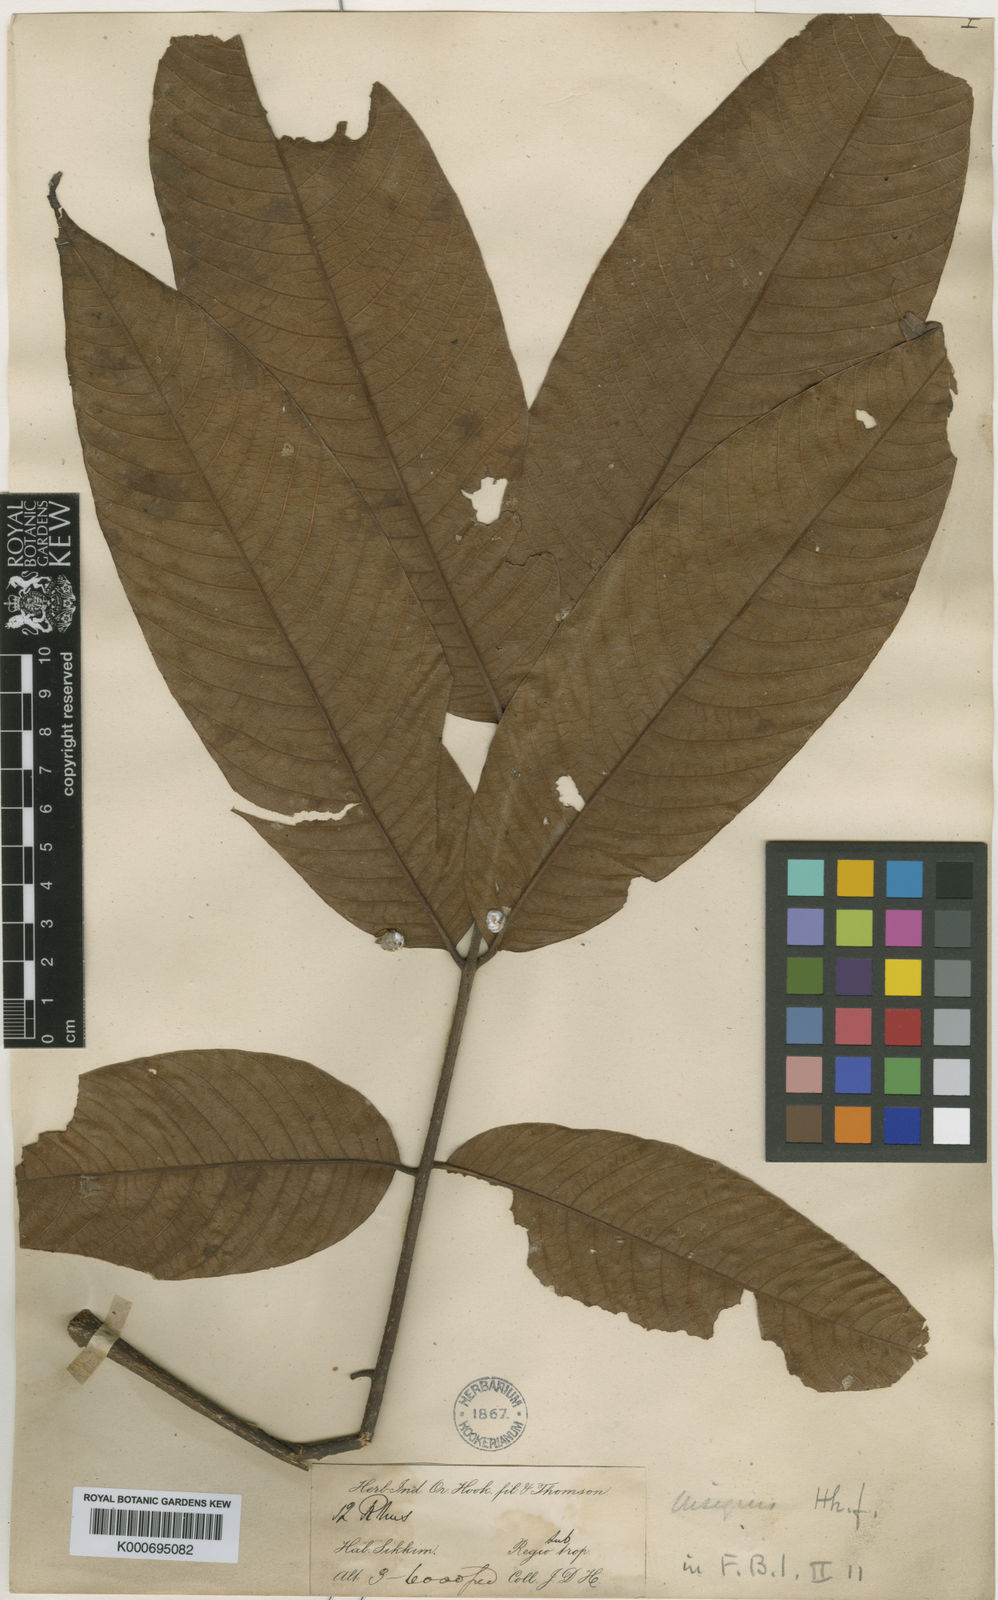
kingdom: Plantae
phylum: Tracheophyta
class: Magnoliopsida
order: Sapindales
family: Anacardiaceae
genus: Toxicodendron
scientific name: Toxicodendron hookeri
